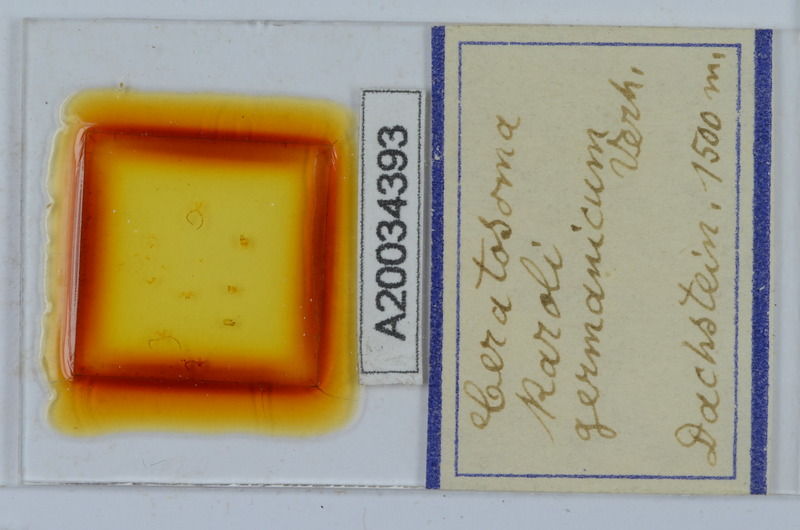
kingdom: Animalia
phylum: Arthropoda
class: Diplopoda
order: Chordeumatida
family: Craspedosomatidae
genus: Ochogona
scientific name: Ochogona caroli
